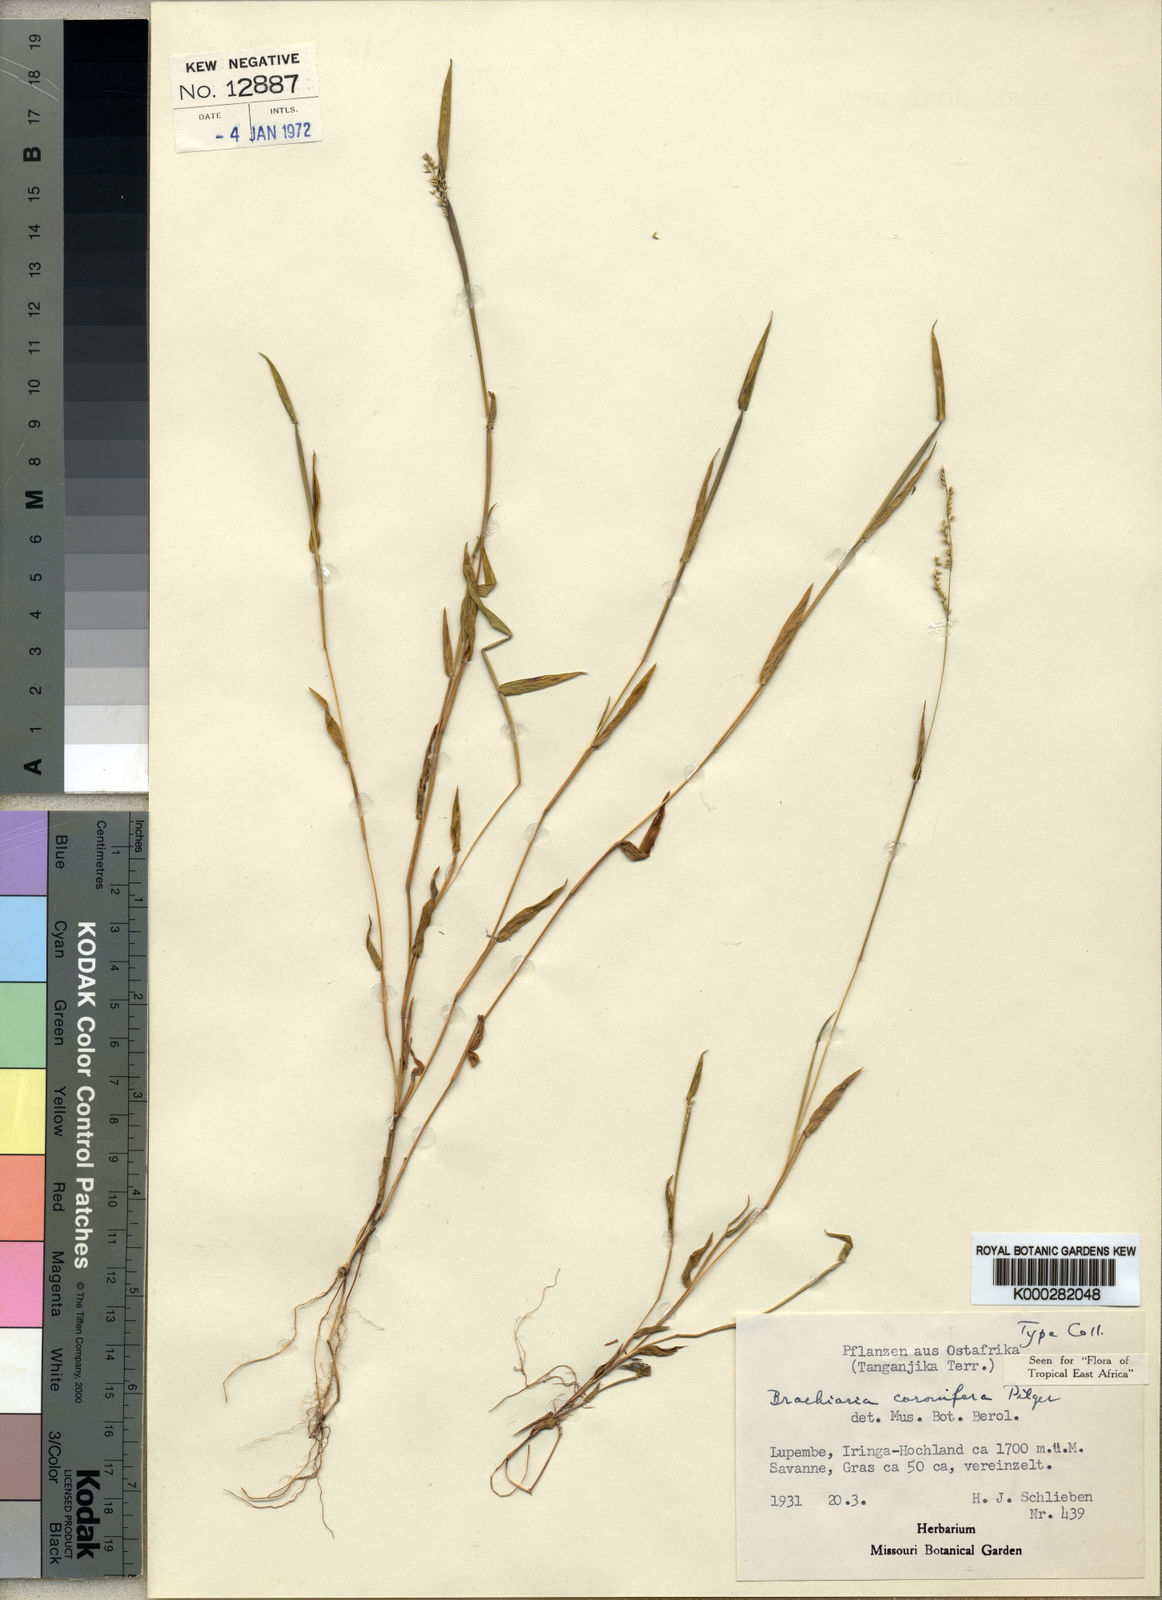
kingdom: Plantae
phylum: Tracheophyta
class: Liliopsida
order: Poales
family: Poaceae
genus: Urochloa
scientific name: Urochloa comata
